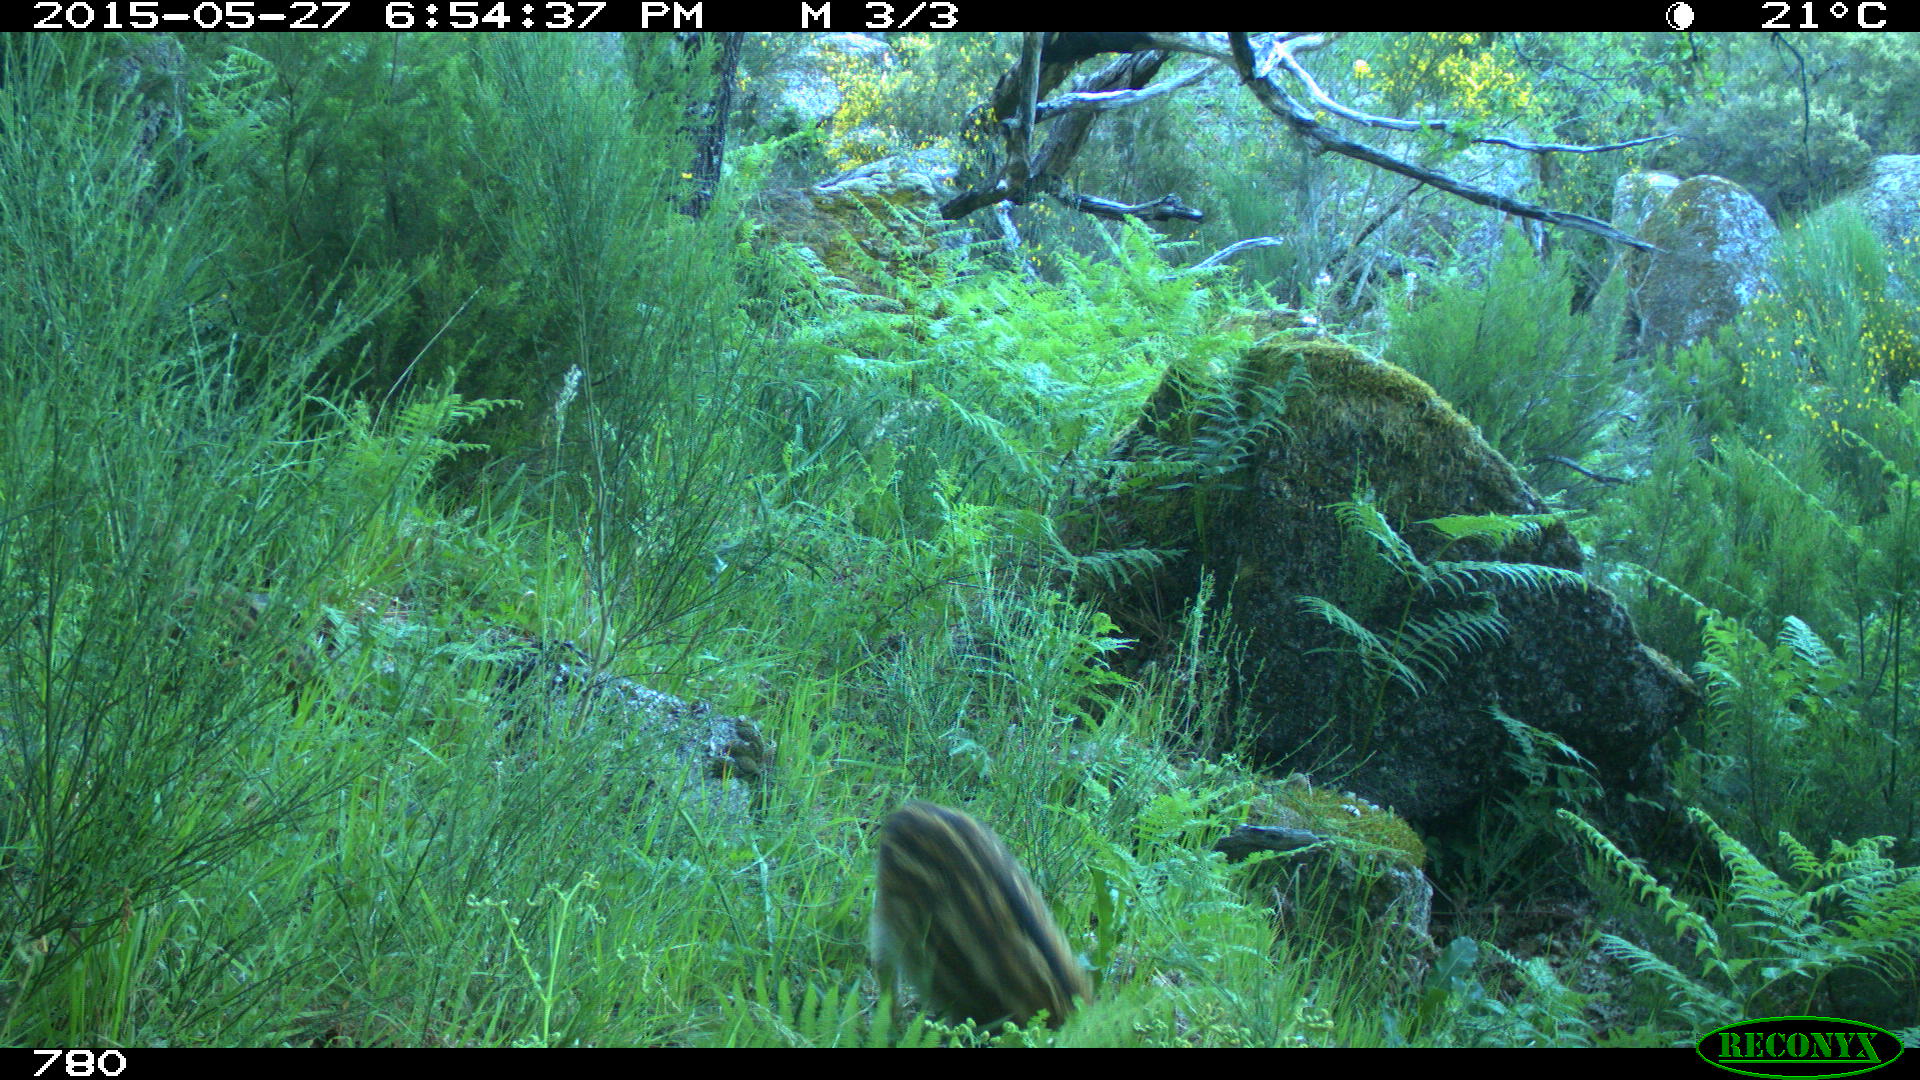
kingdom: Animalia
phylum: Chordata
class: Mammalia
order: Artiodactyla
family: Suidae
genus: Sus
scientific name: Sus scrofa
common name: Wild boar
